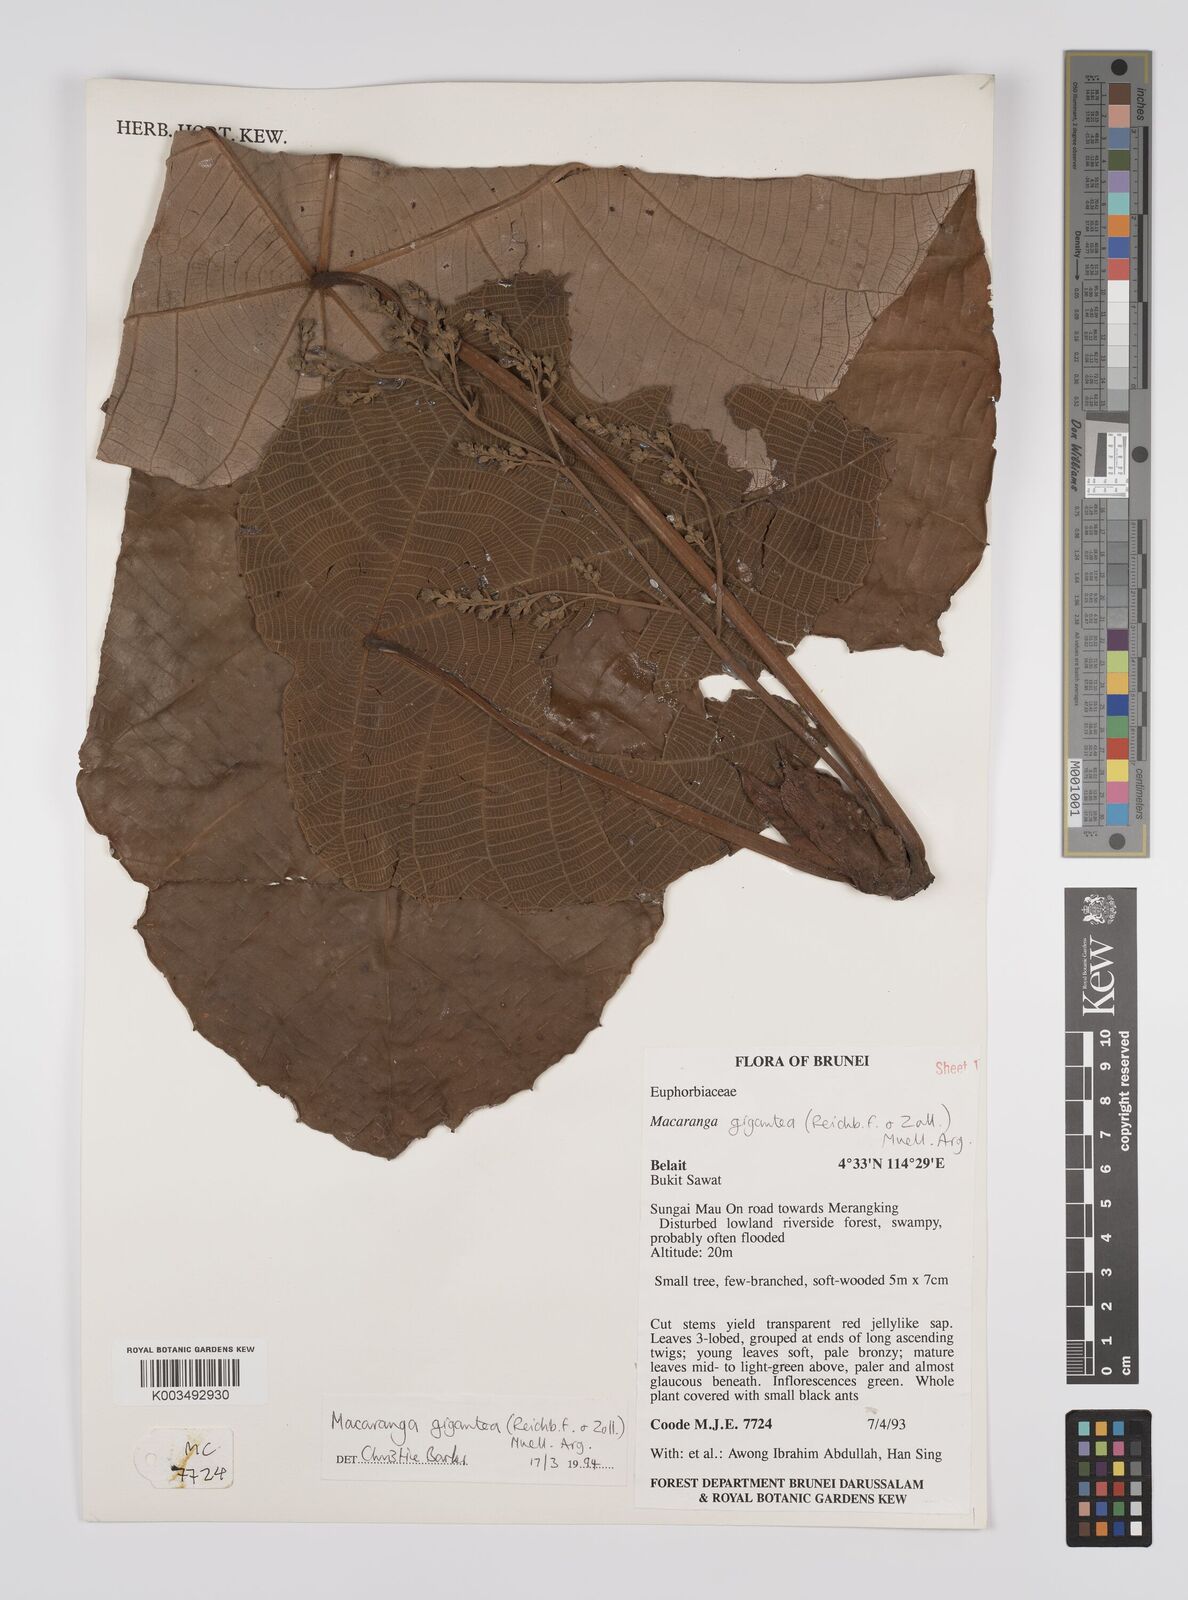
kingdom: Plantae
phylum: Tracheophyta
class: Magnoliopsida
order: Malpighiales
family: Euphorbiaceae
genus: Macaranga
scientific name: Macaranga gigantea
